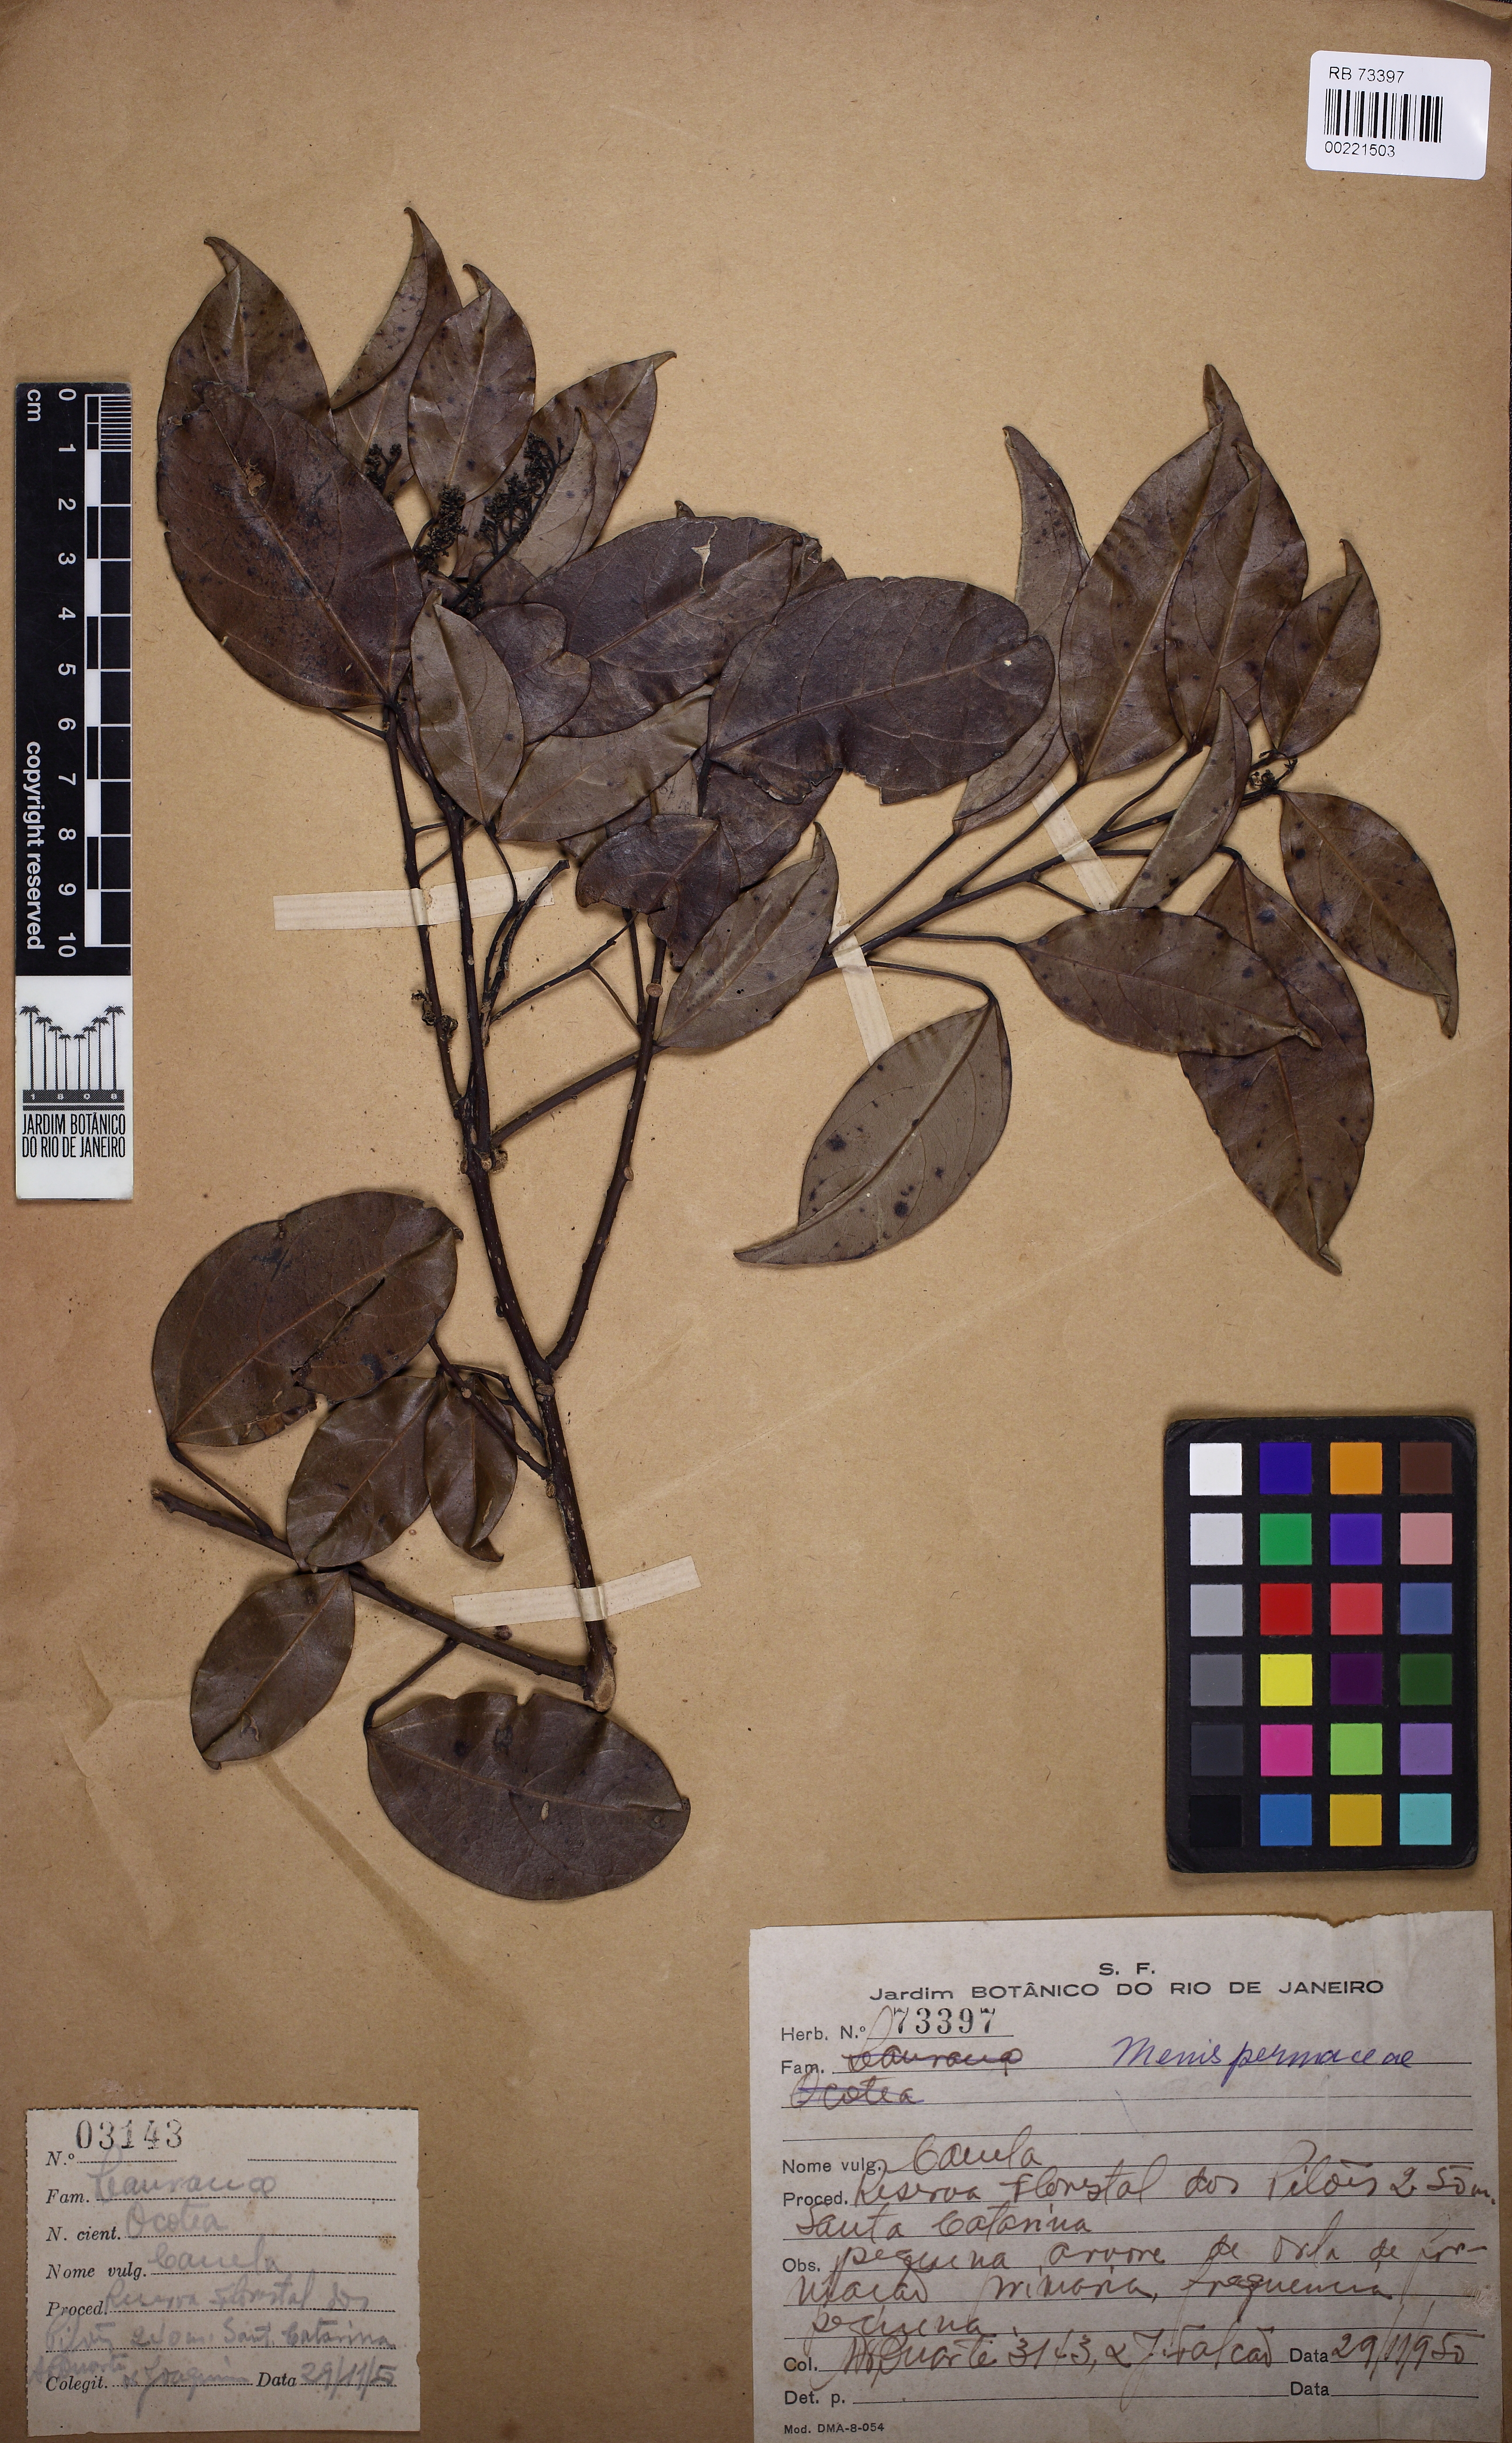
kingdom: Plantae
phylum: Tracheophyta
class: Magnoliopsida
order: Ranunculales
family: Menispermaceae
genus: Abuta
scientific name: Abuta selloana
